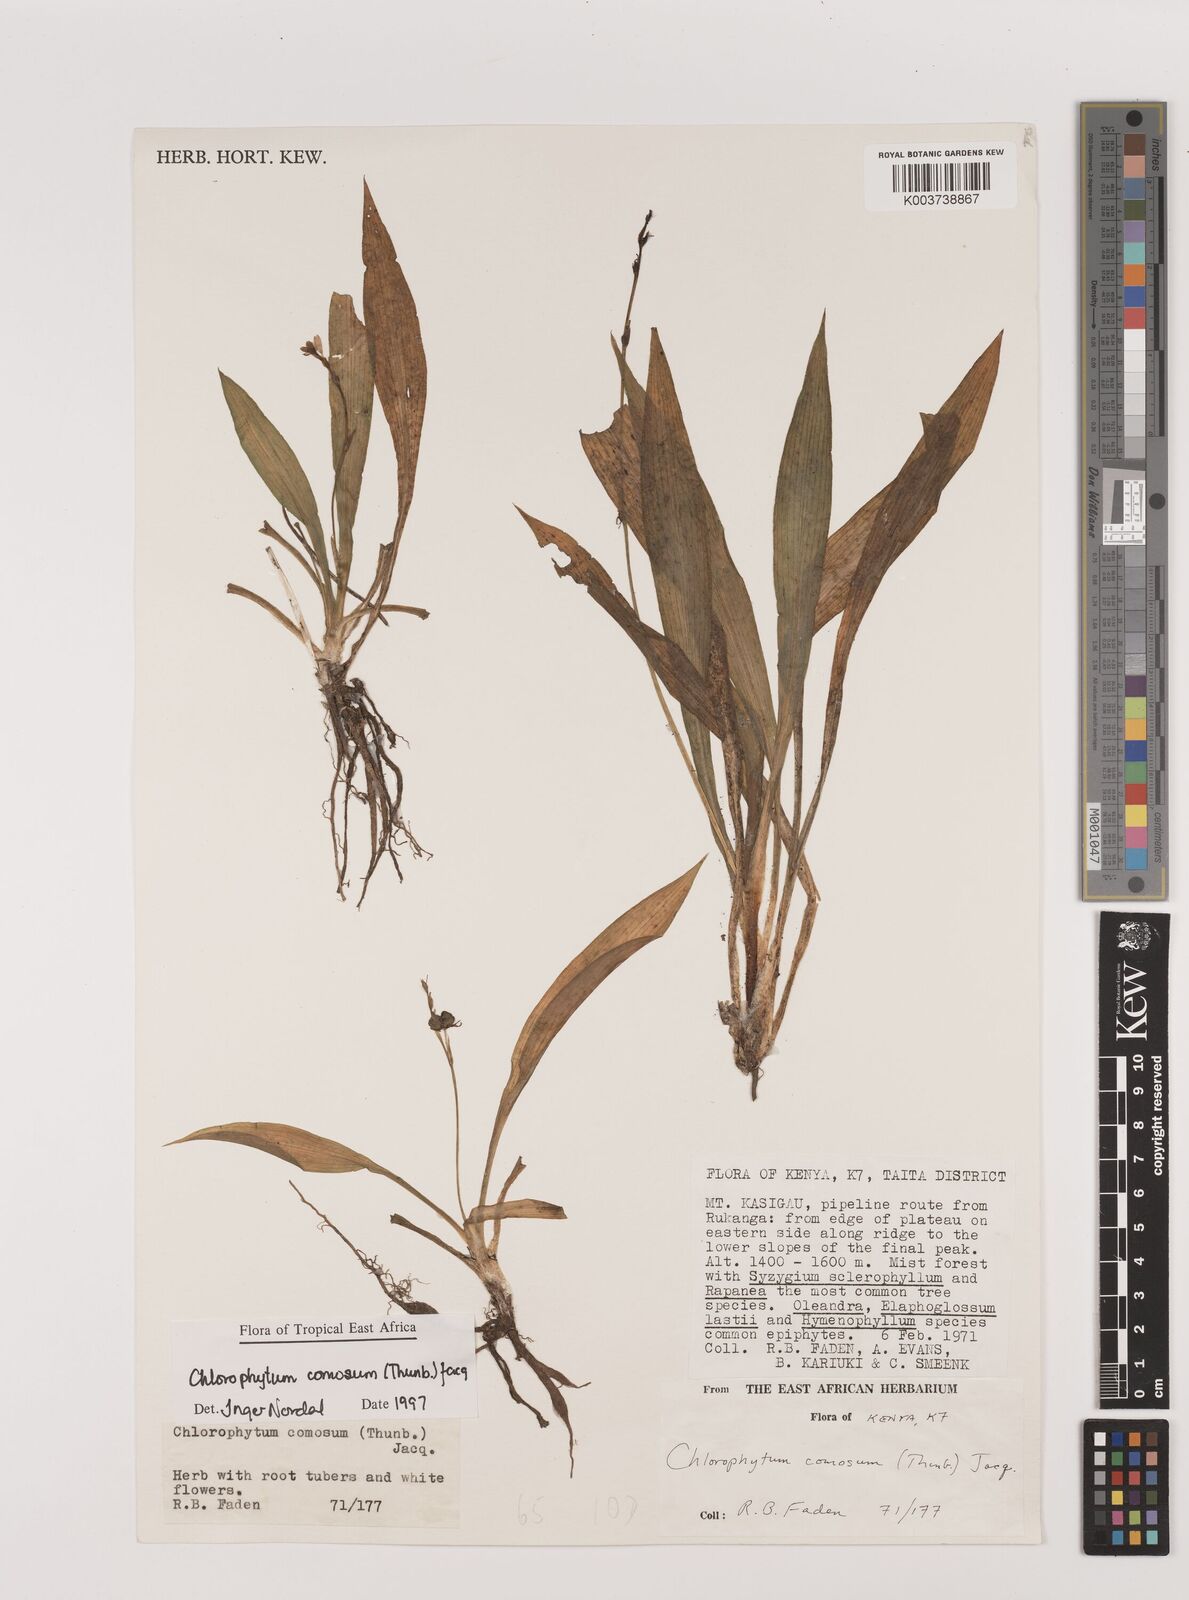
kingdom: Plantae
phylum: Tracheophyta
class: Liliopsida
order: Asparagales
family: Asparagaceae
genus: Chlorophytum
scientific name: Chlorophytum comosum
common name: Spider plant
